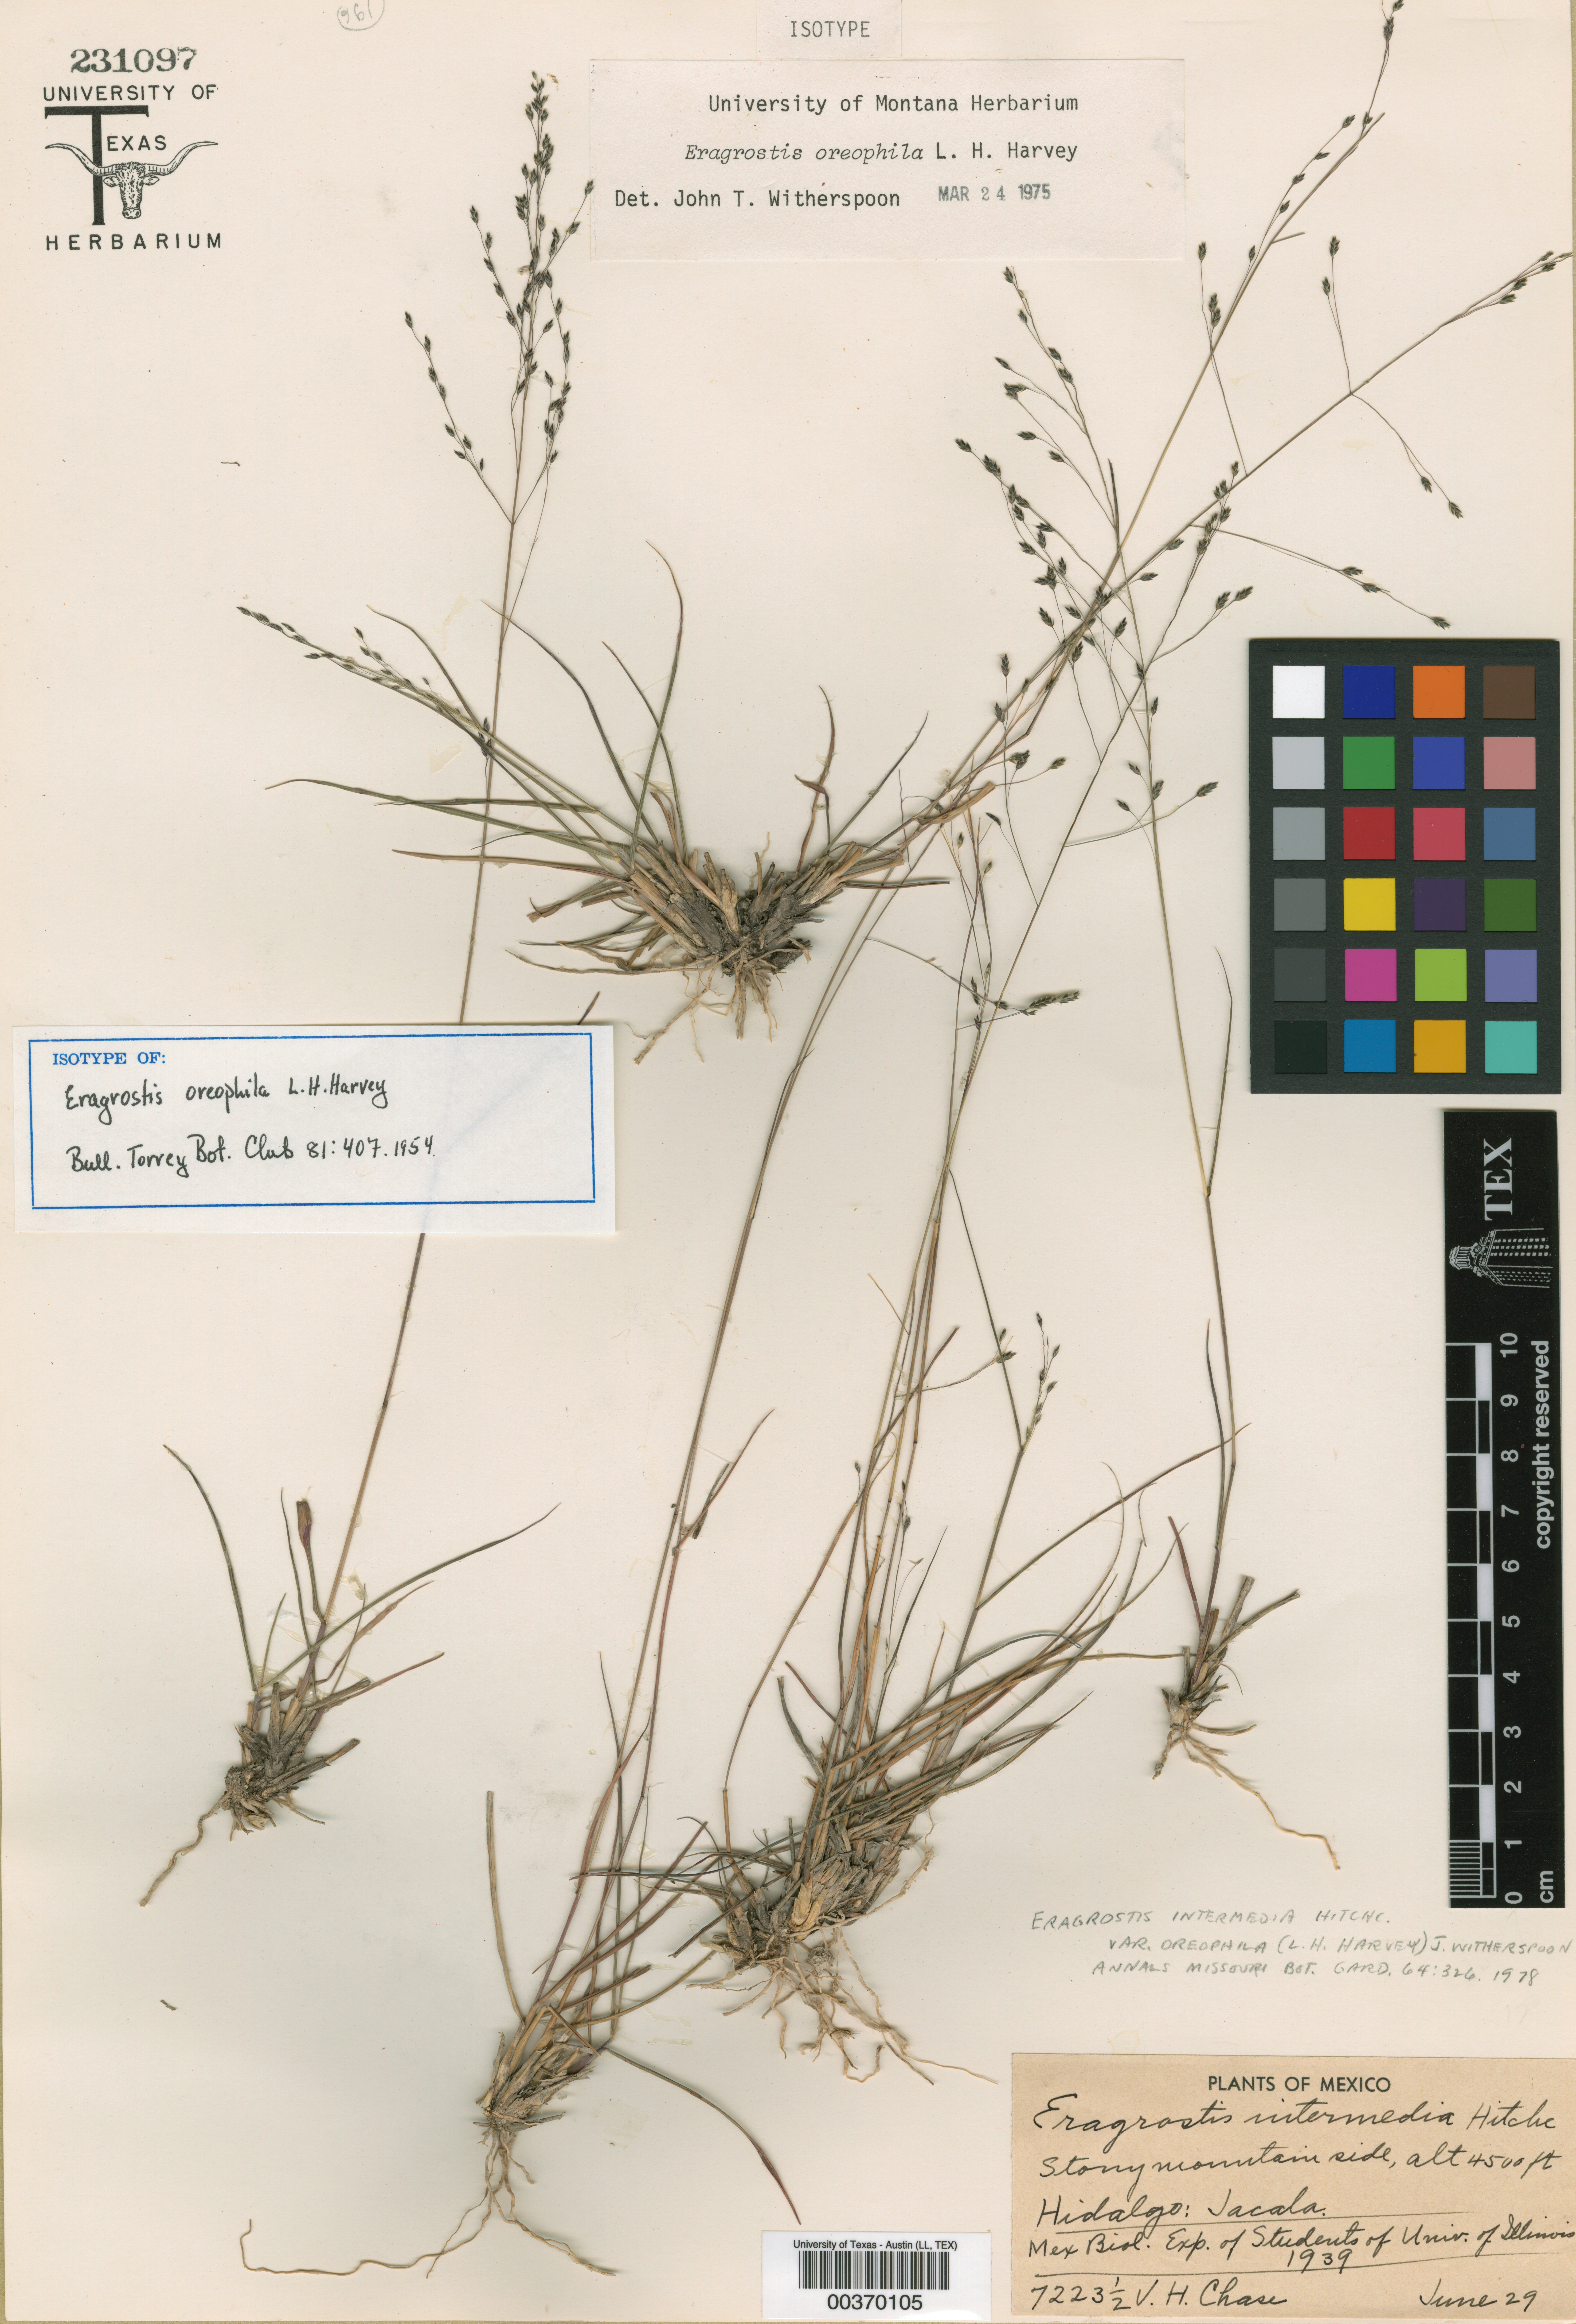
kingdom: Plantae
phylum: Tracheophyta
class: Liliopsida
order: Poales
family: Poaceae
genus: Eragrostis
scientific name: Eragrostis oreophila
